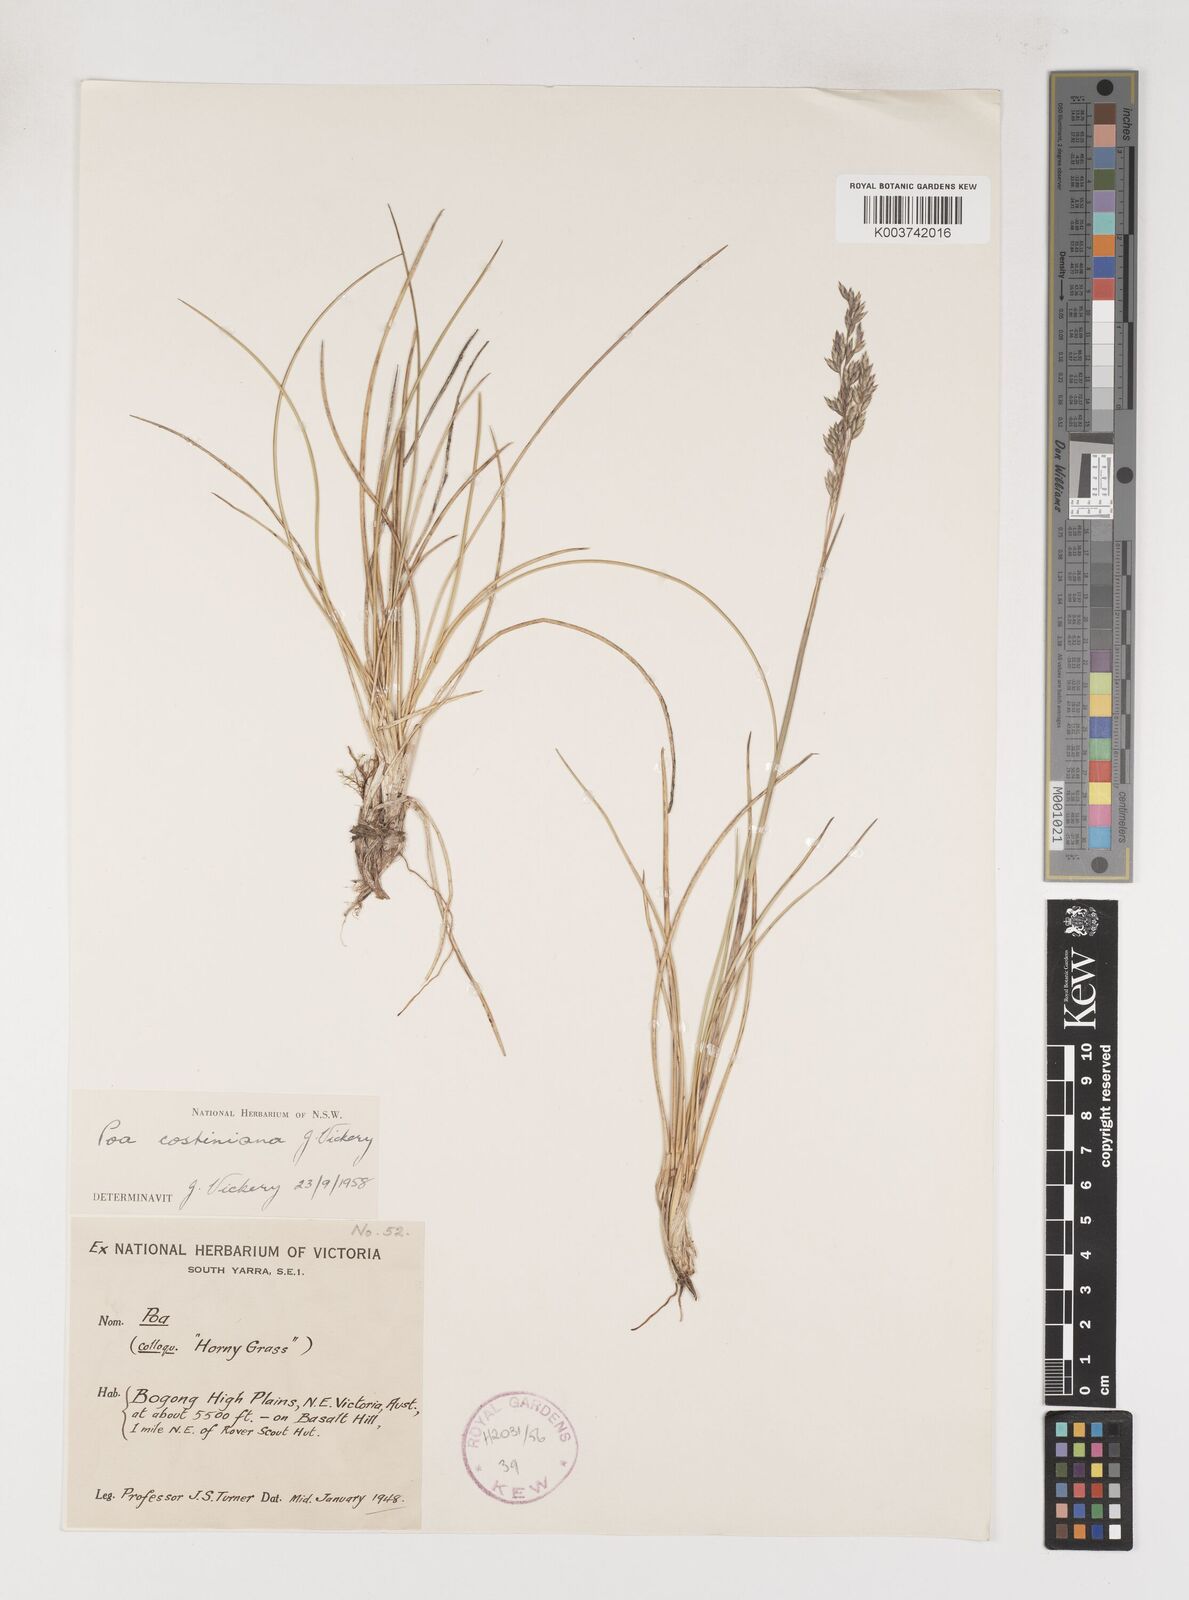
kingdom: Plantae
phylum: Tracheophyta
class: Liliopsida
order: Poales
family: Poaceae
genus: Poa
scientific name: Poa costiniana
